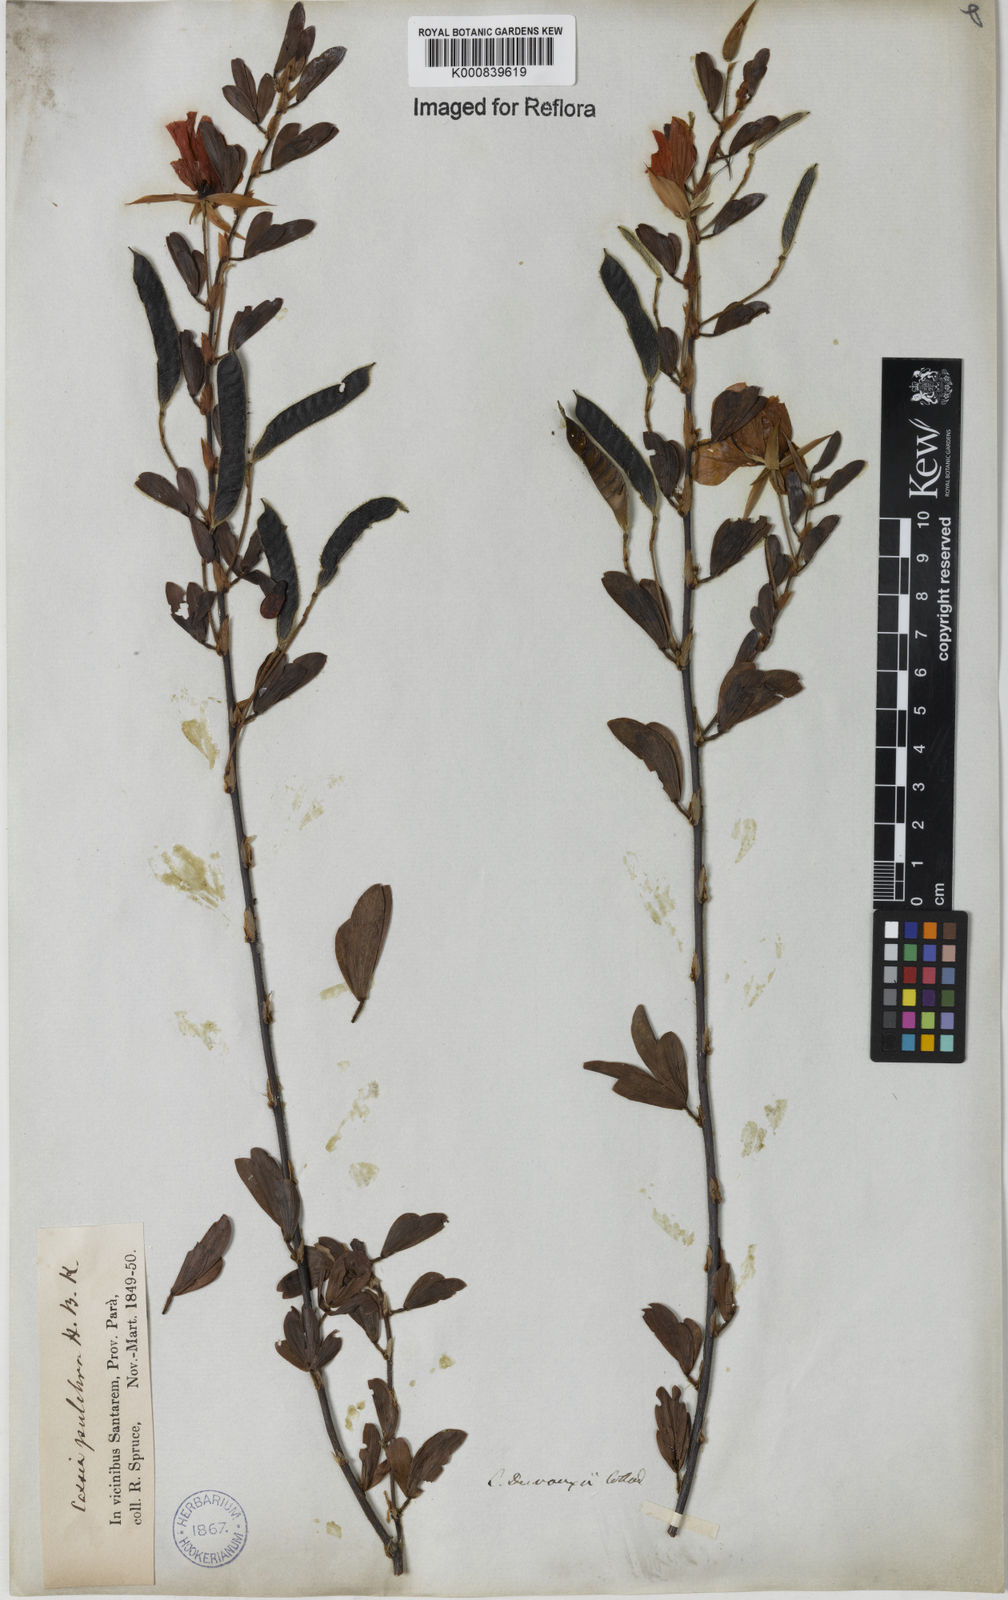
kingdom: Plantae
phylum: Tracheophyta
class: Magnoliopsida
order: Fabales
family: Fabaceae
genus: Chamaecrista
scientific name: Chamaecrista desvauxii
